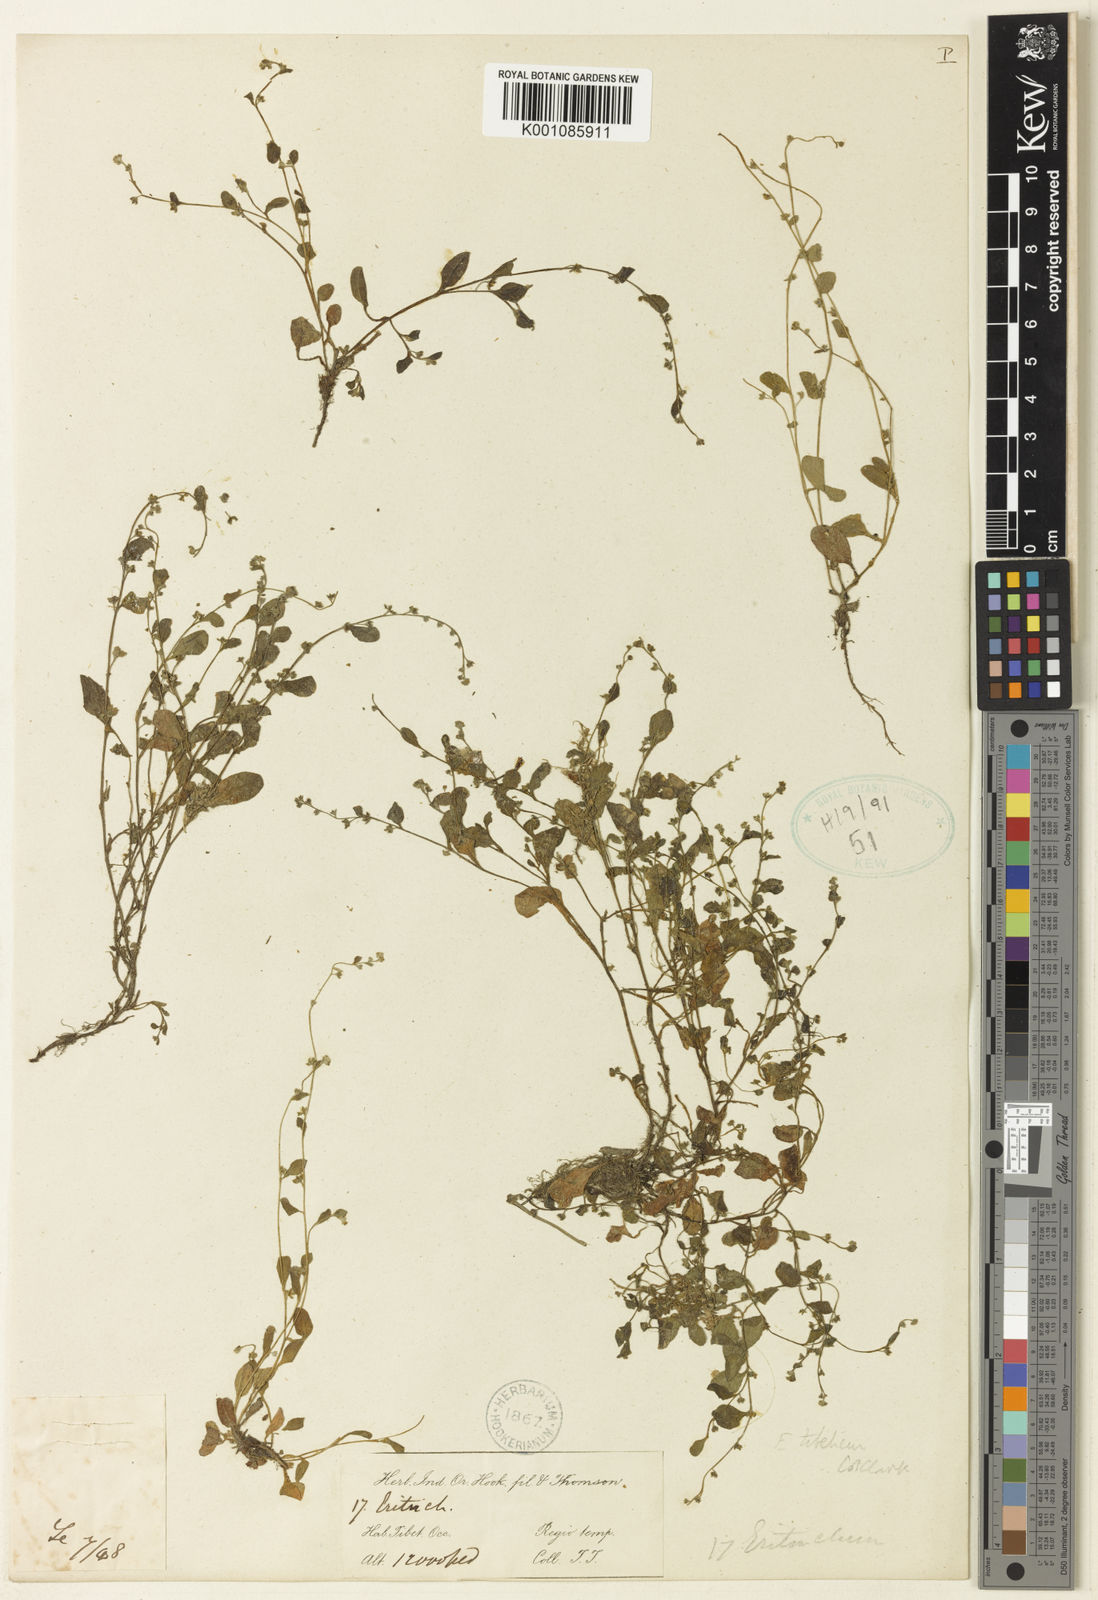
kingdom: Plantae
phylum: Tracheophyta
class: Magnoliopsida
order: Boraginales
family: Boraginaceae
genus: Trigonotis
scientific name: Trigonotis
